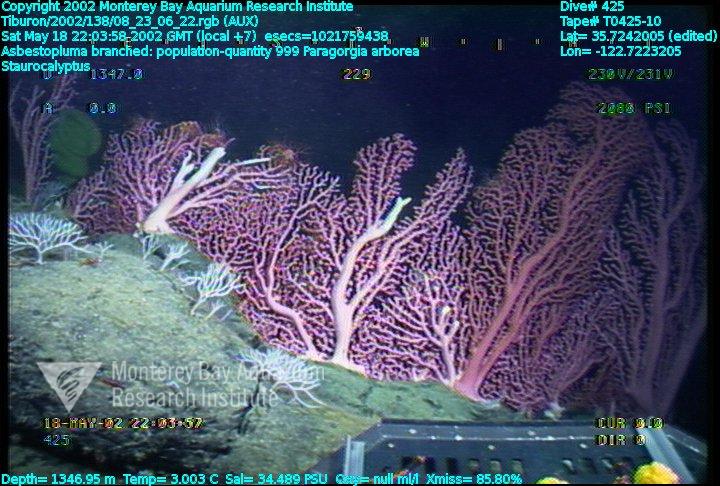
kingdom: Animalia
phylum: Porifera
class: Hexactinellida
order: Lyssacinosida
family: Rossellidae
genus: Staurocalyptus
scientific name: Staurocalyptus
